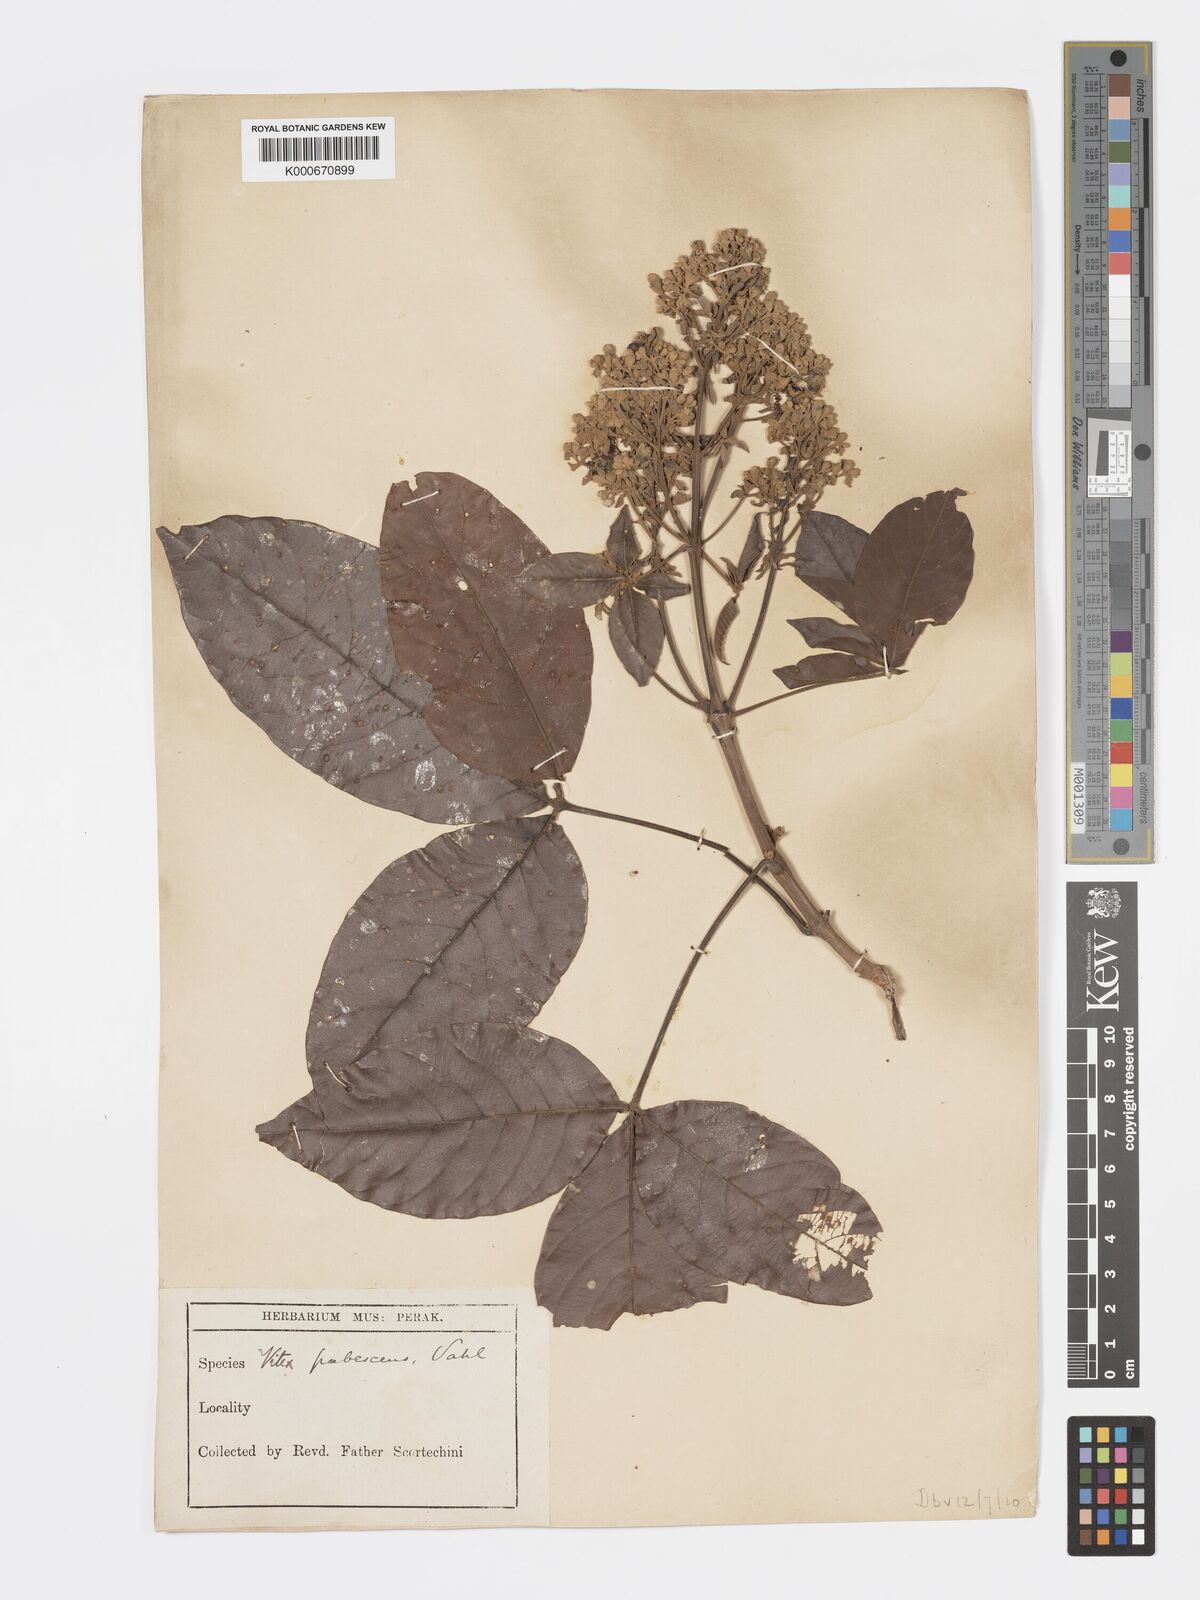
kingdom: Plantae
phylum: Tracheophyta
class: Magnoliopsida
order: Lamiales
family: Lamiaceae
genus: Vitex
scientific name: Vitex pinnata
